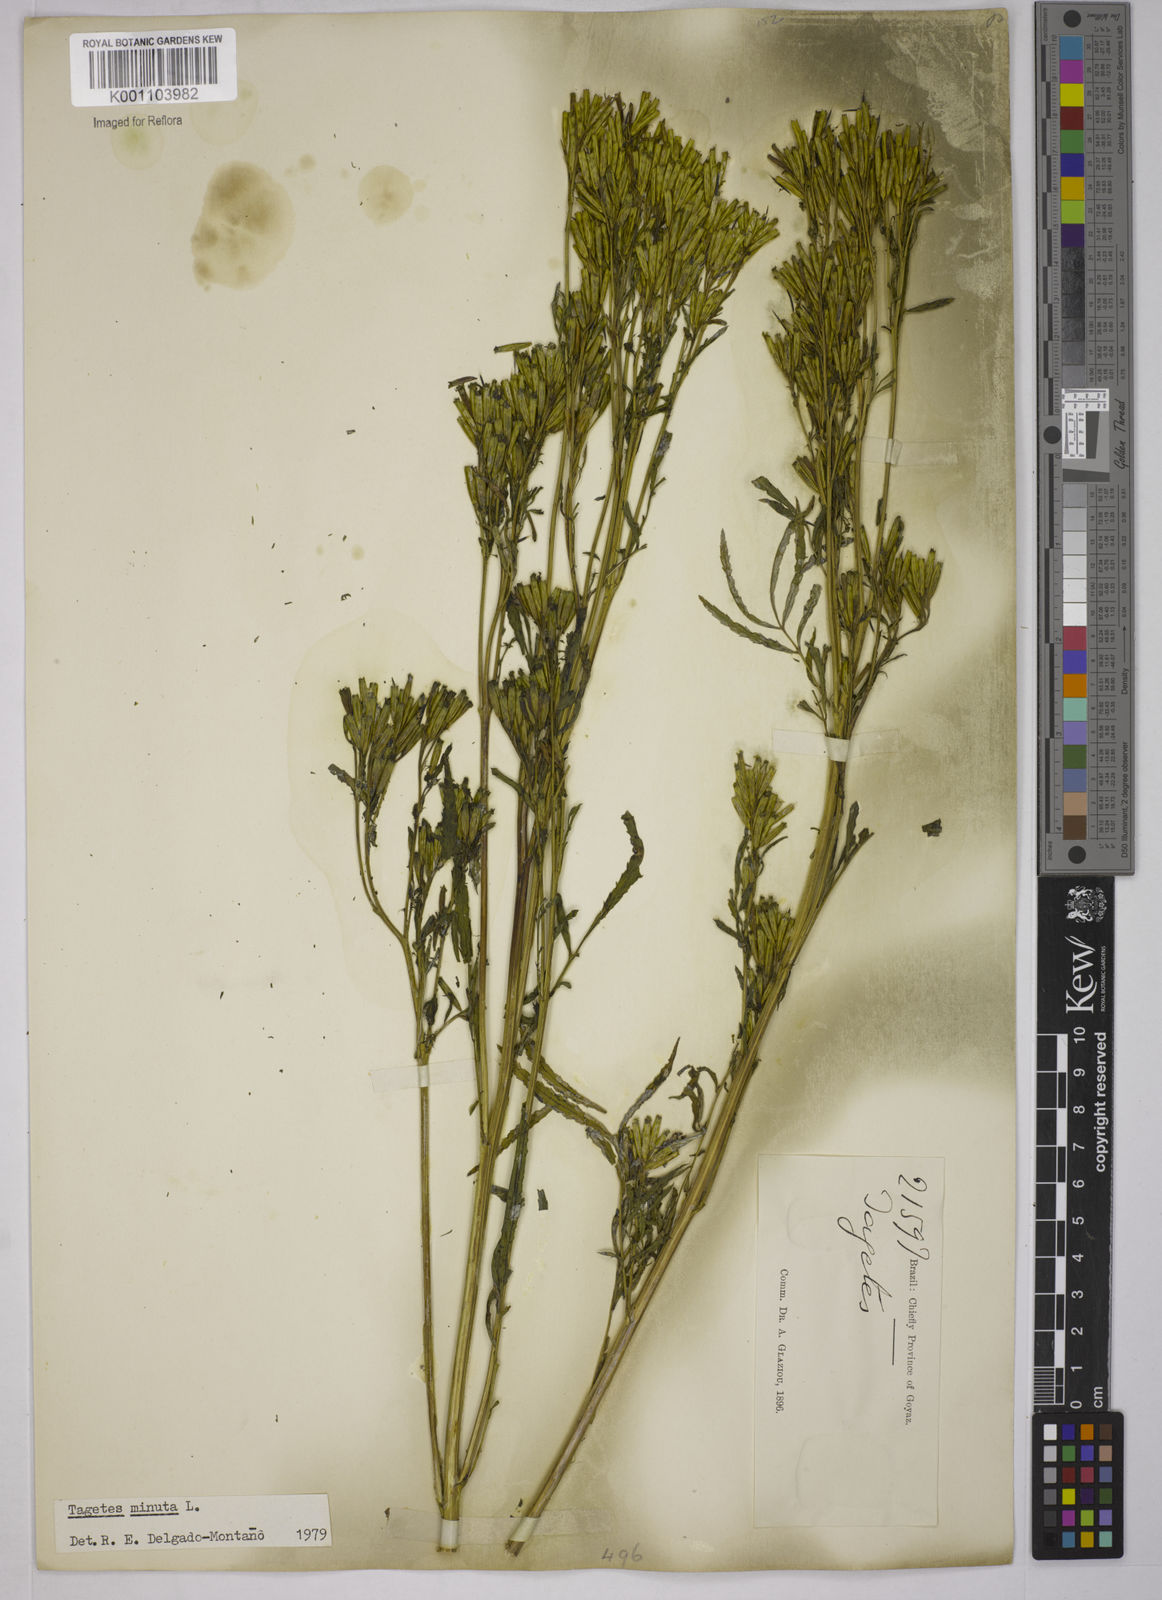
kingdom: Plantae
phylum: Tracheophyta
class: Magnoliopsida
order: Asterales
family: Asteraceae
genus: Tagetes
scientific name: Tagetes minuta
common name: Muster john henry
